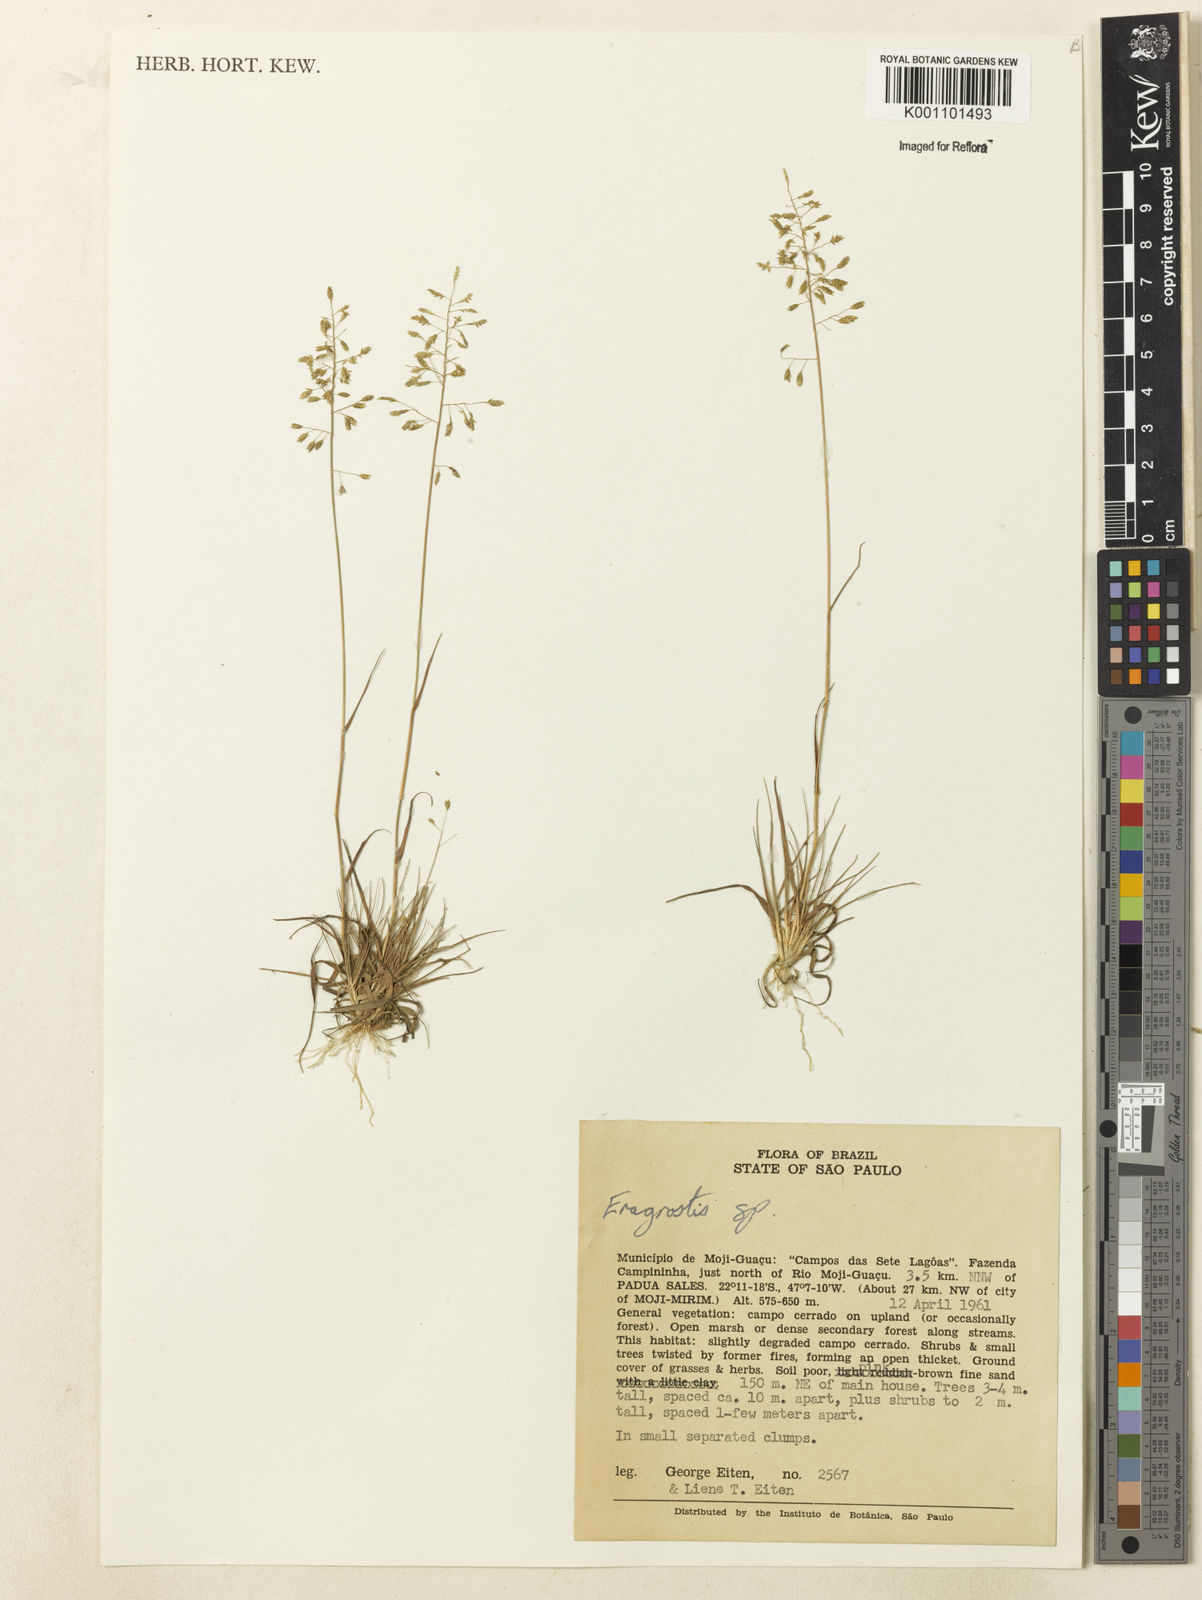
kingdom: Plantae
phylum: Tracheophyta
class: Liliopsida
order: Poales
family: Poaceae
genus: Eragrostis
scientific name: Eragrostis
